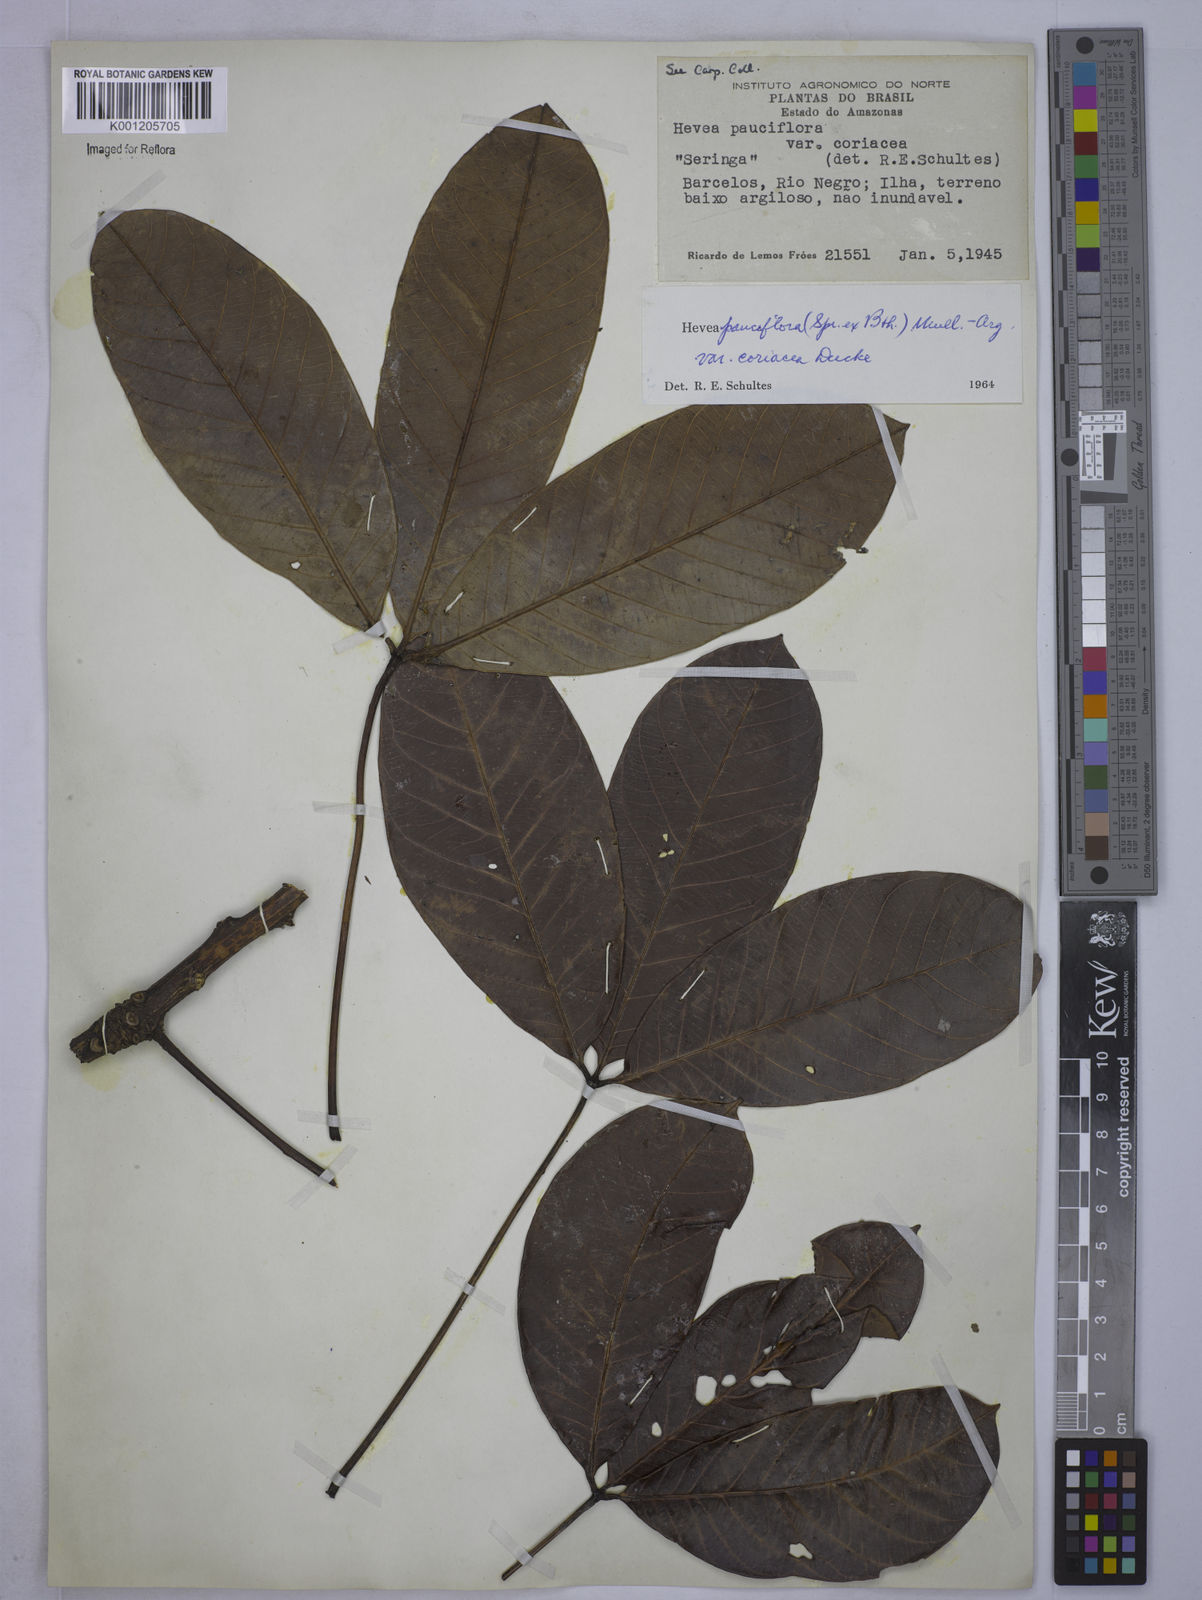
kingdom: Plantae
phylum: Tracheophyta
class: Magnoliopsida
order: Malpighiales
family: Euphorbiaceae
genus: Hevea
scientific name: Hevea pauciflora
